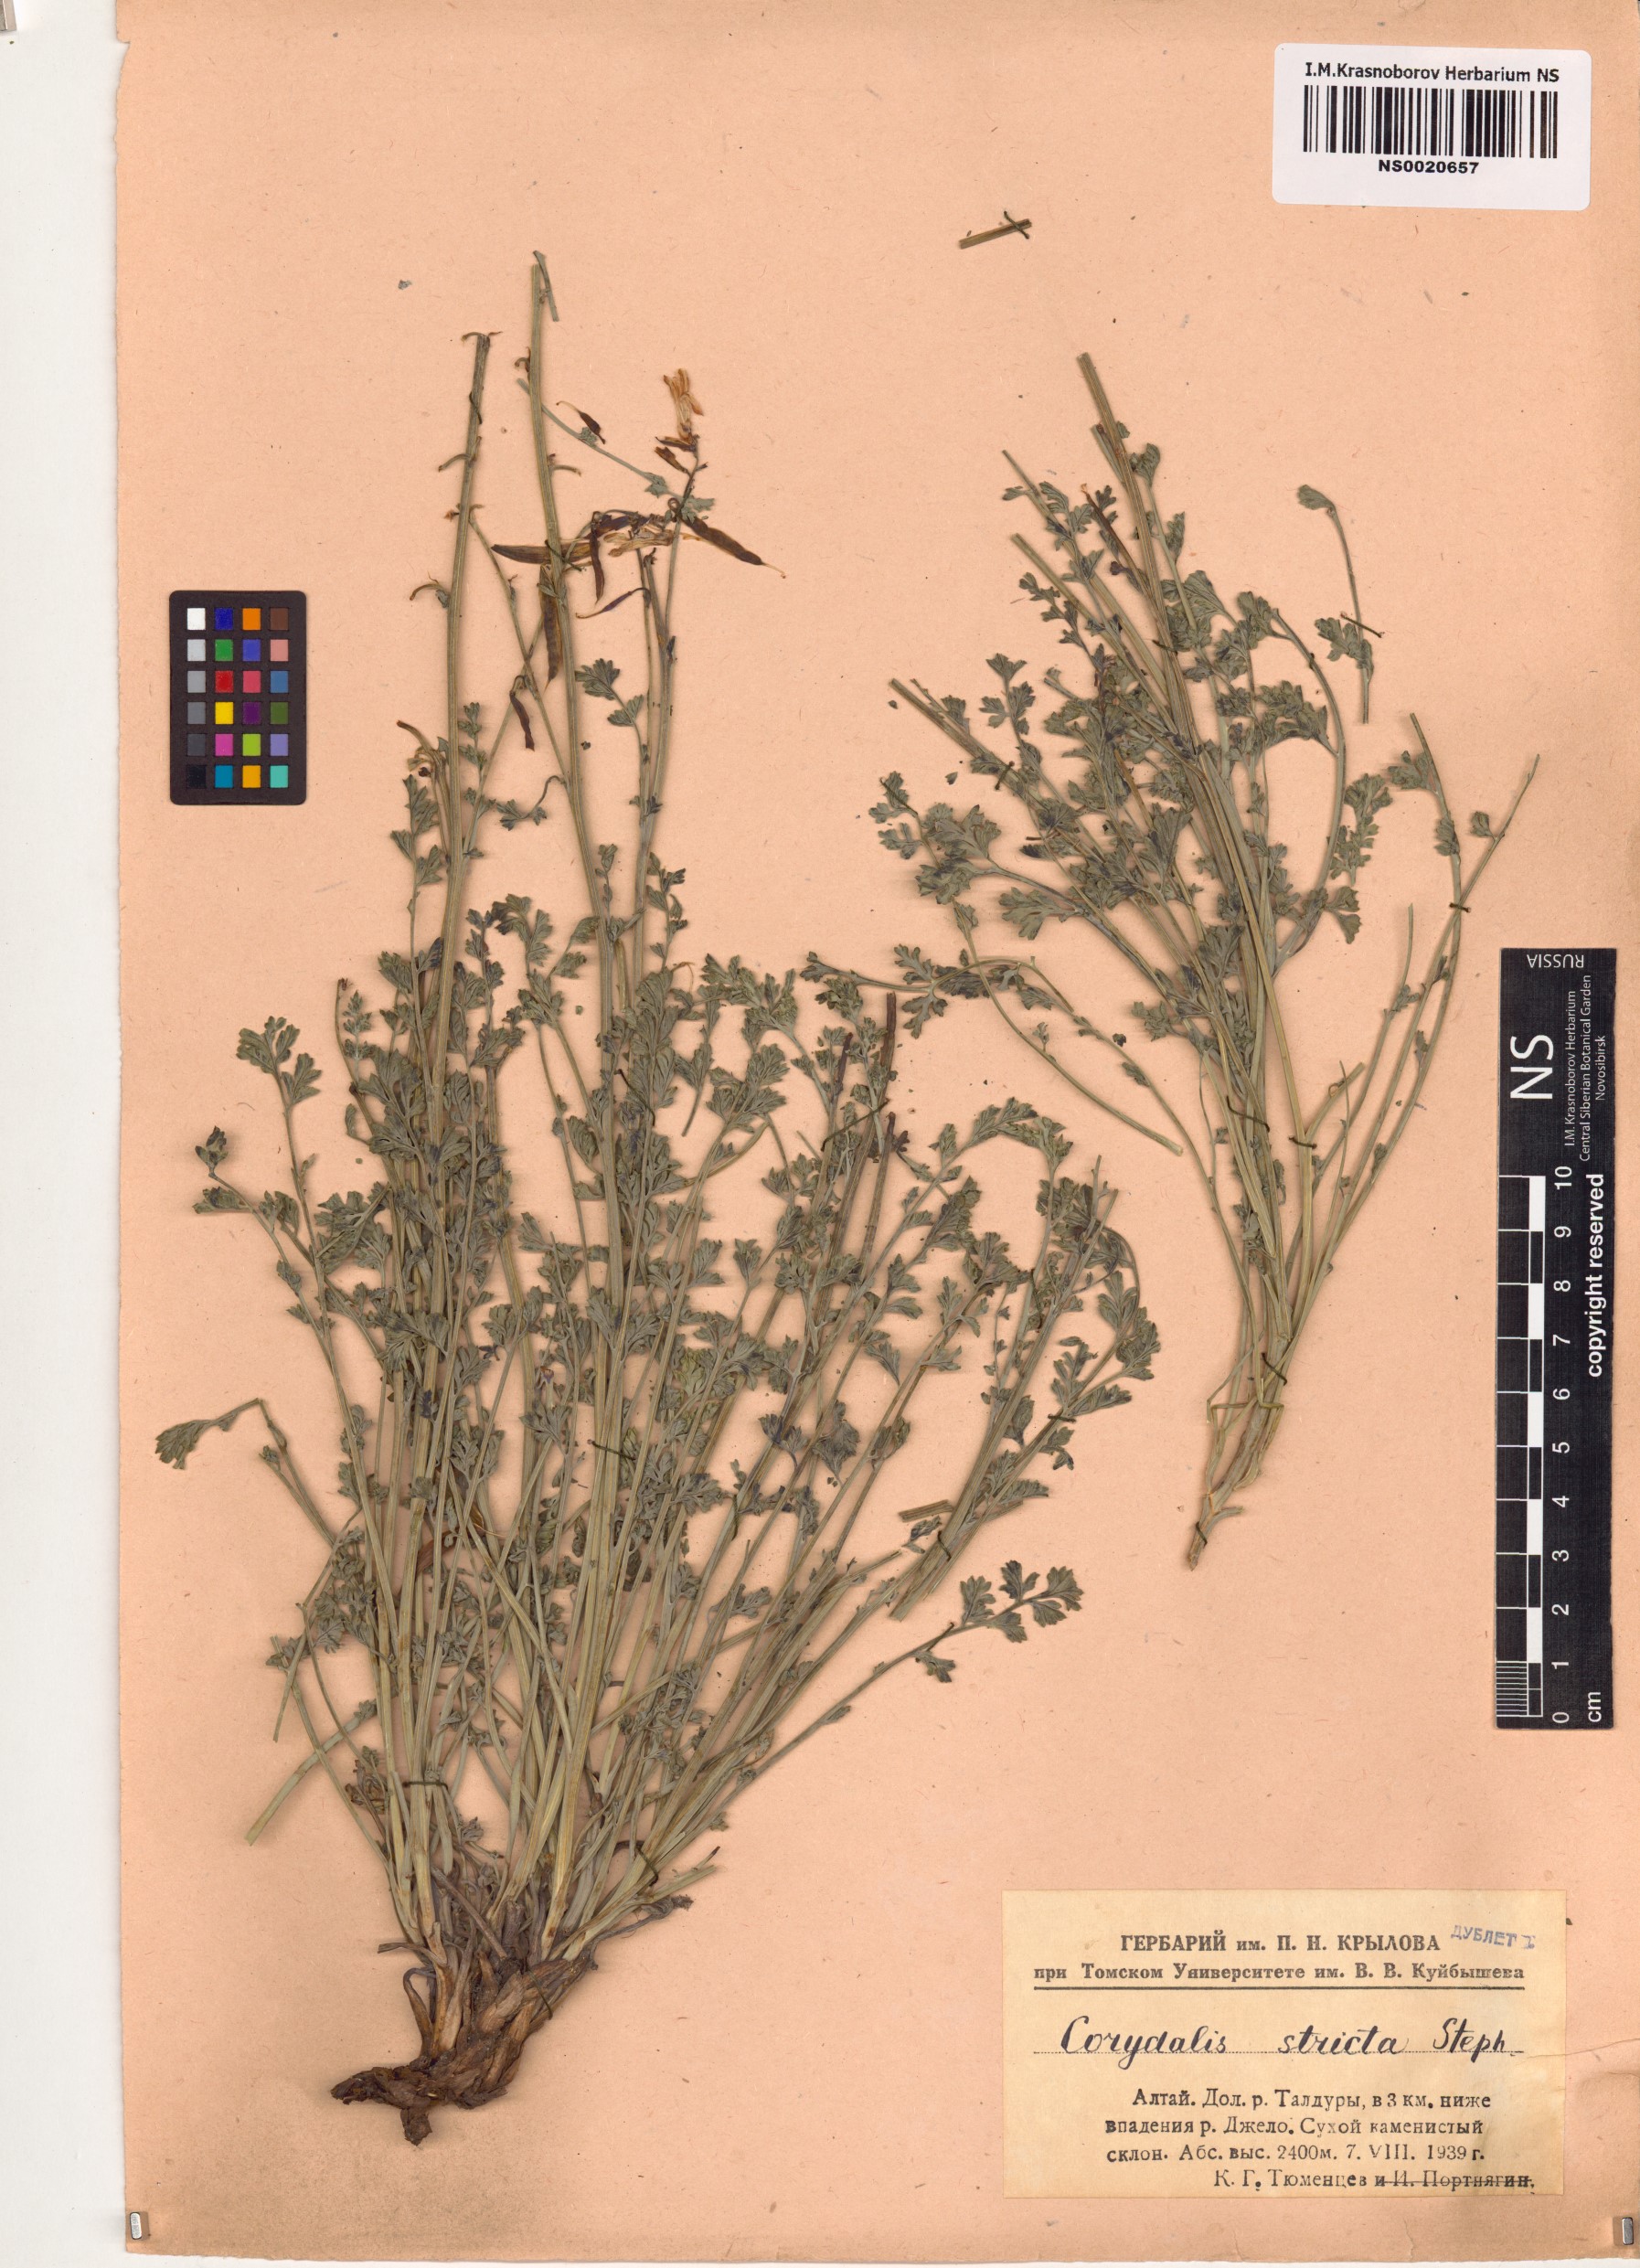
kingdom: Plantae
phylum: Tracheophyta
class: Magnoliopsida
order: Ranunculales
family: Papaveraceae
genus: Corydalis
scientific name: Corydalis stricta
